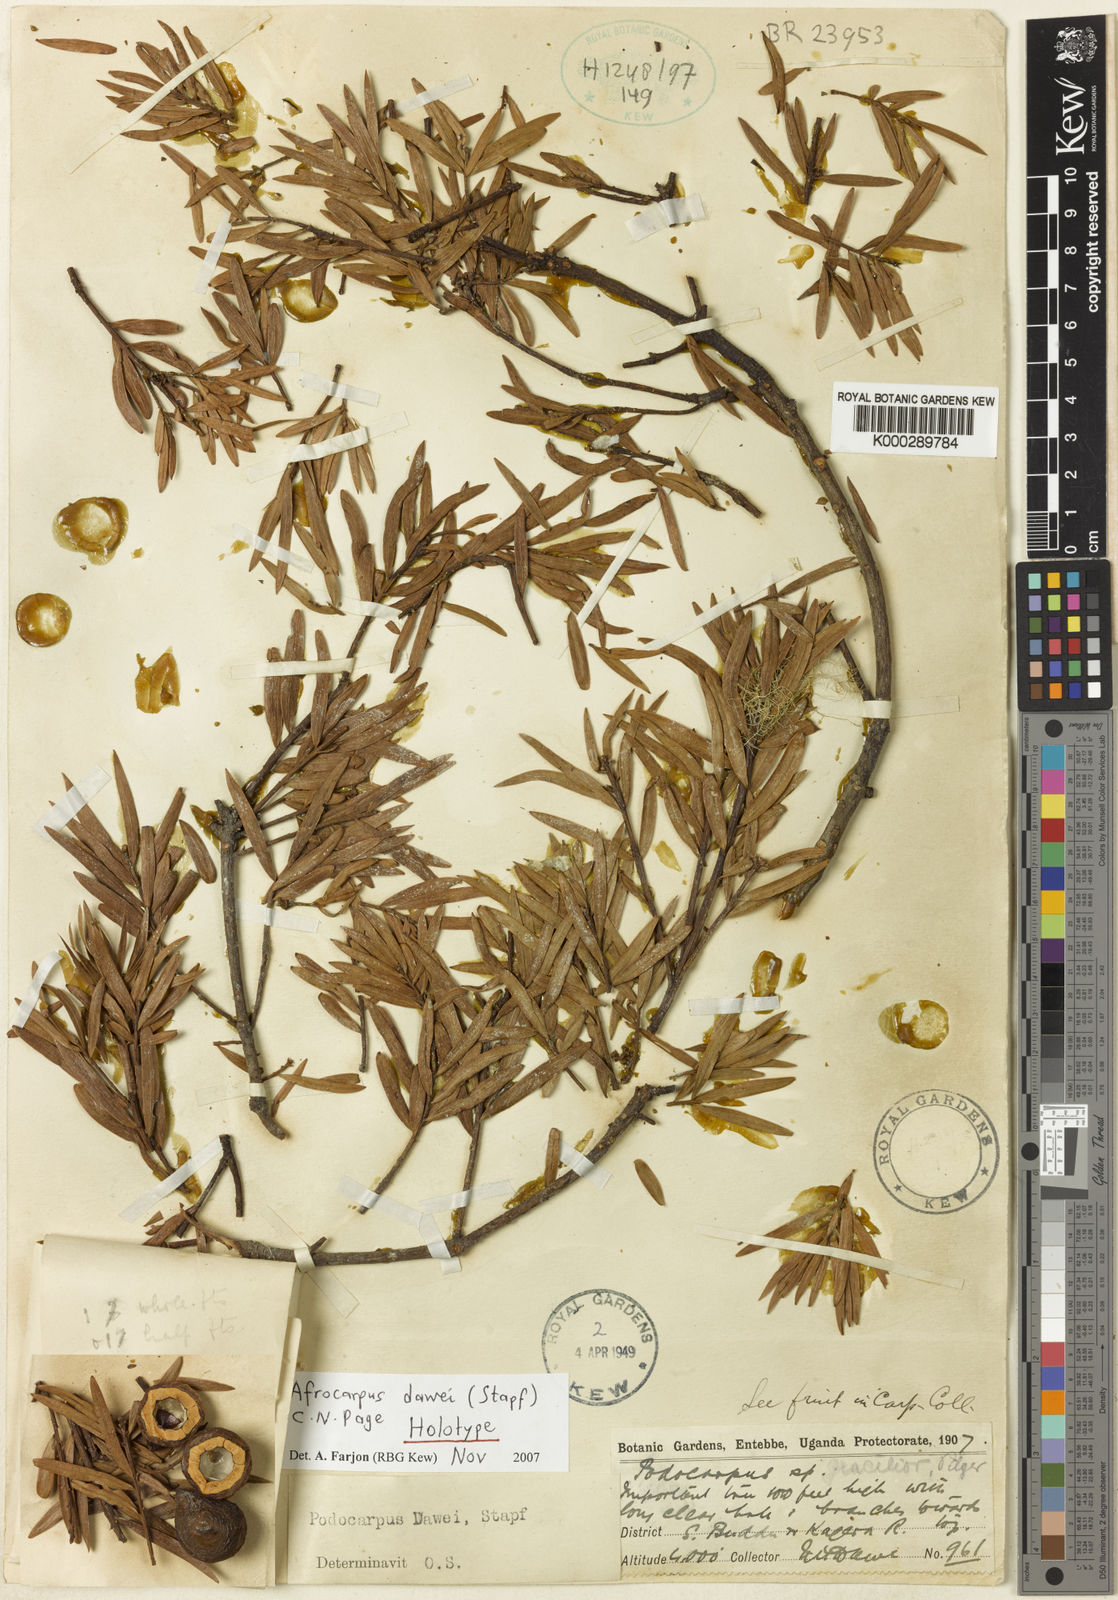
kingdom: Plantae
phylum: Tracheophyta
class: Pinopsida
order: Pinales
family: Podocarpaceae
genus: Afrocarpus
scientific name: Afrocarpus dawei
